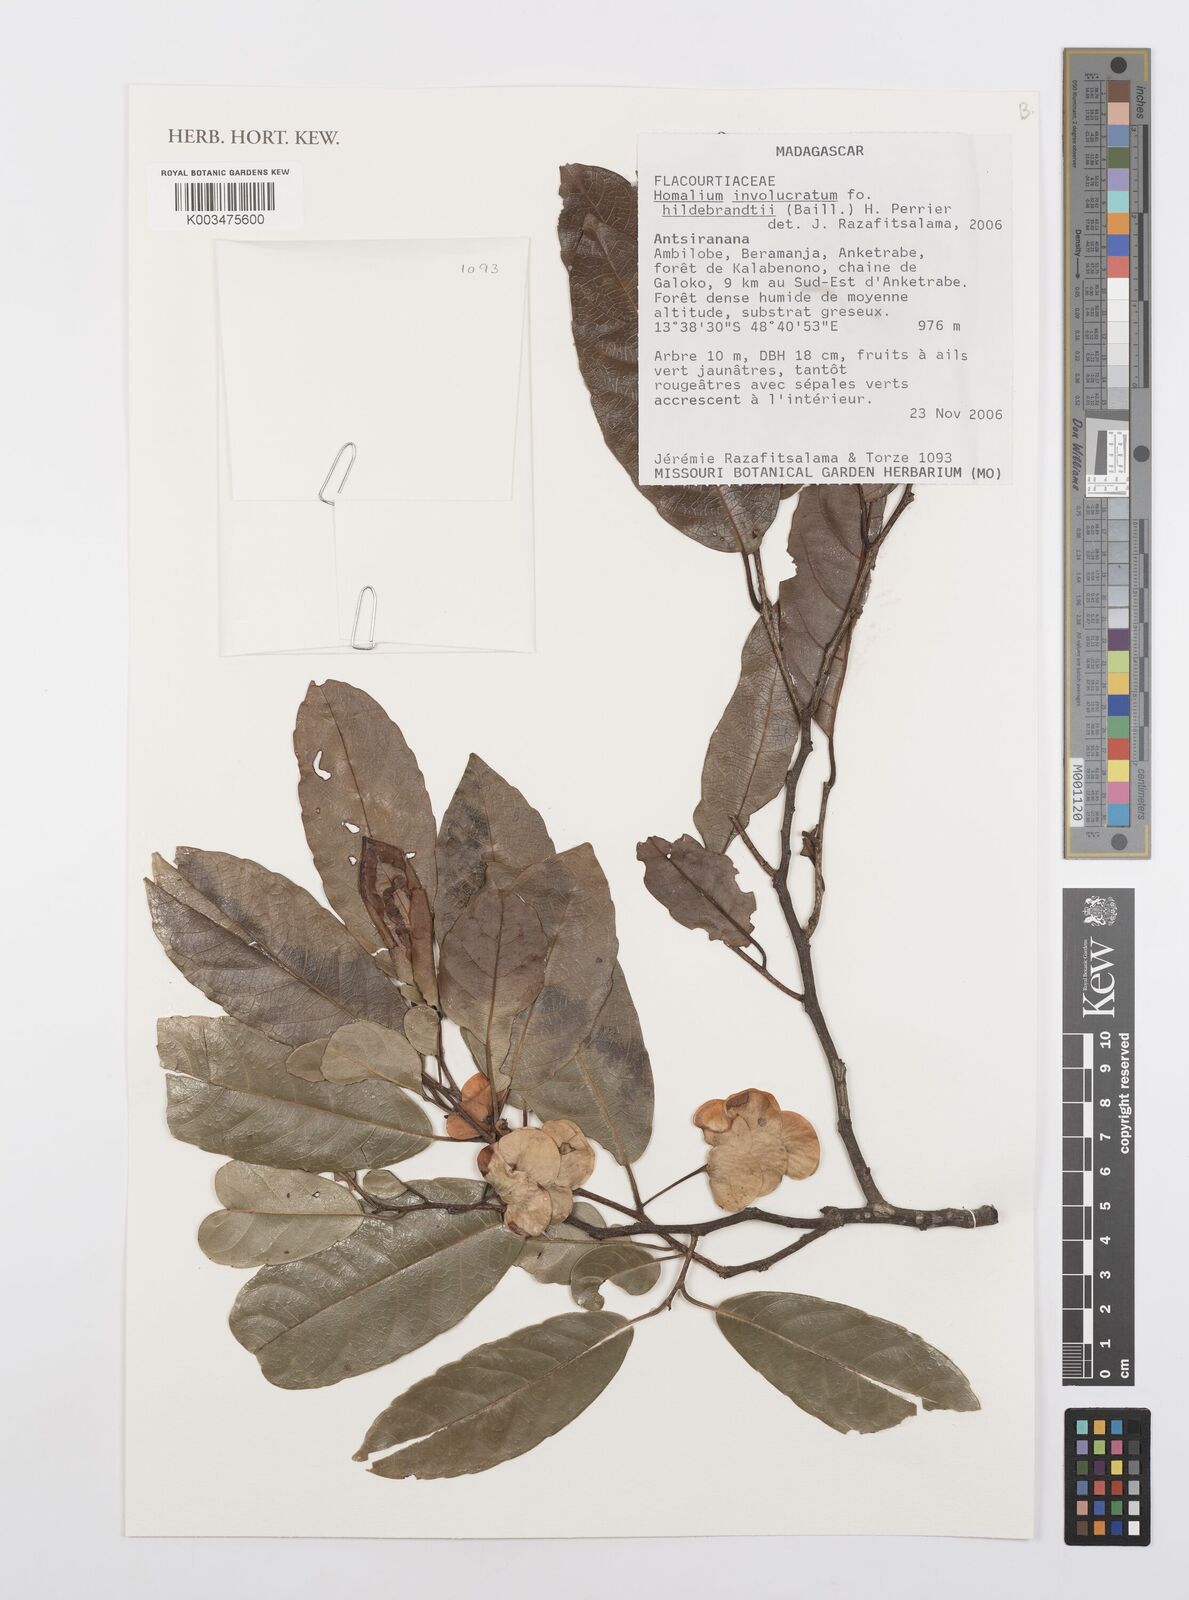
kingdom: Plantae
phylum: Tracheophyta
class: Magnoliopsida
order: Malpighiales
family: Salicaceae
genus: Homalium
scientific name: Homalium involucratum
